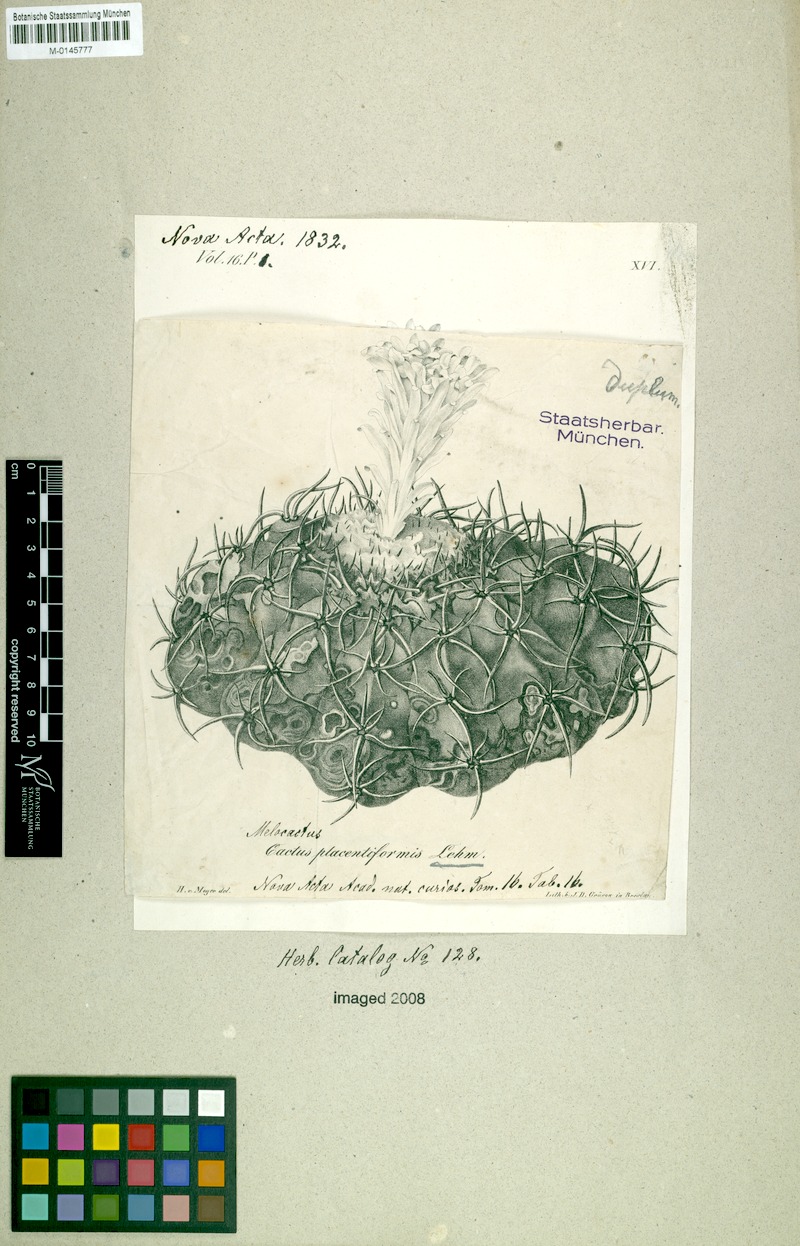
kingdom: Plantae
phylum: Tracheophyta
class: Magnoliopsida
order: Caryophyllales
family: Cactaceae
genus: Discocactus
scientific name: Discocactus placentiformis
